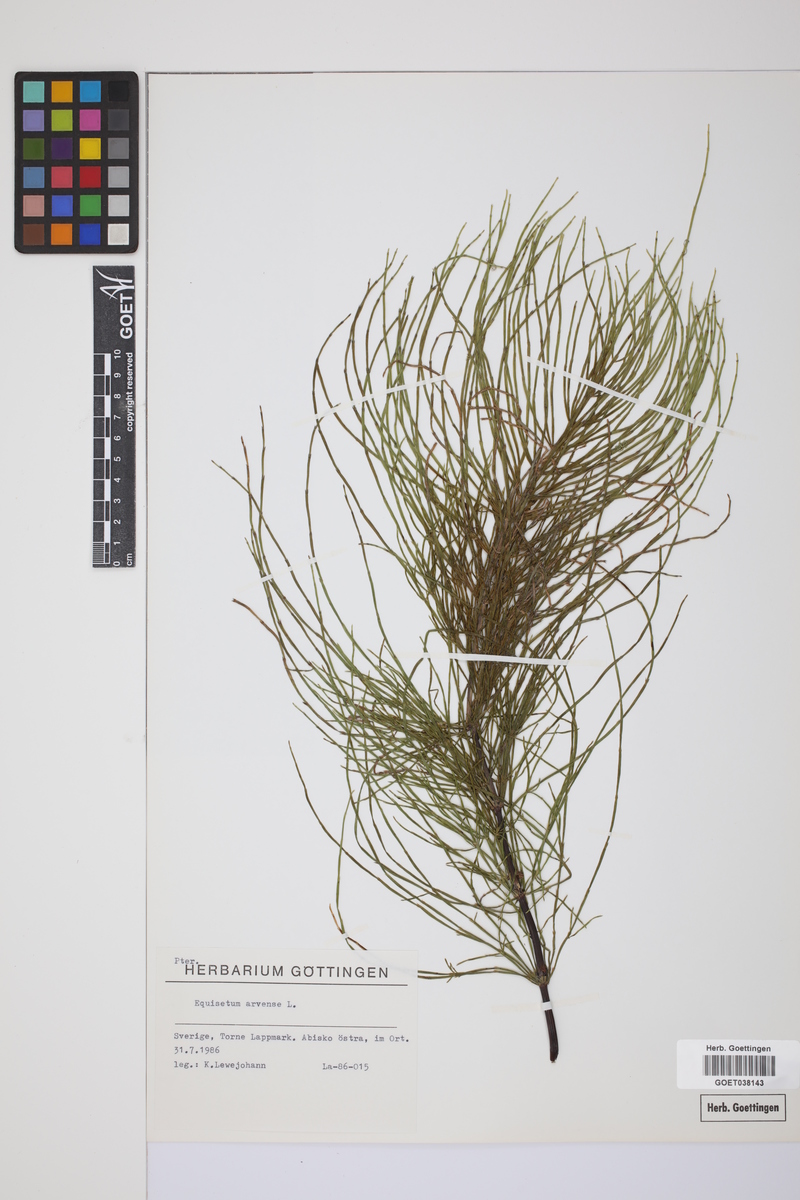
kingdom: Plantae
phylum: Tracheophyta
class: Polypodiopsida
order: Equisetales
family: Equisetaceae
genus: Equisetum
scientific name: Equisetum arvense
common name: Field horsetail
